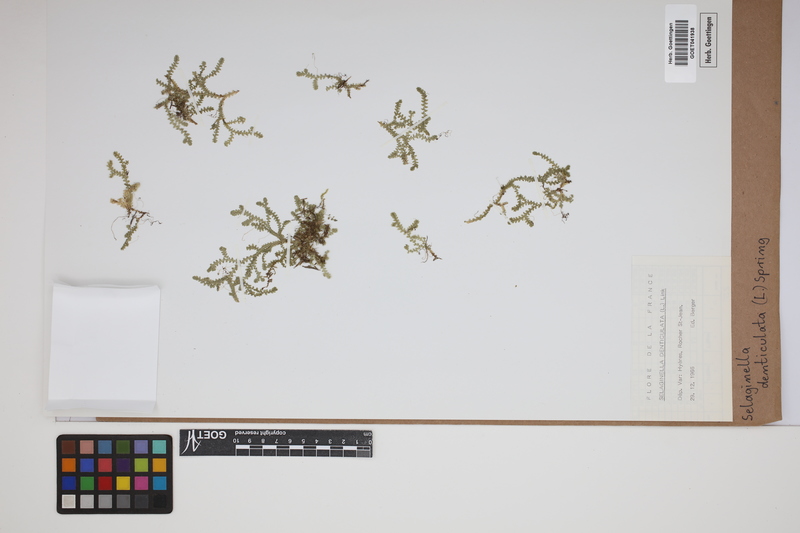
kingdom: Plantae
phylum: Tracheophyta
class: Lycopodiopsida
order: Selaginellales
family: Selaginellaceae
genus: Selaginella
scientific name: Selaginella denticulata
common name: Toothed-leaved clubmoss
